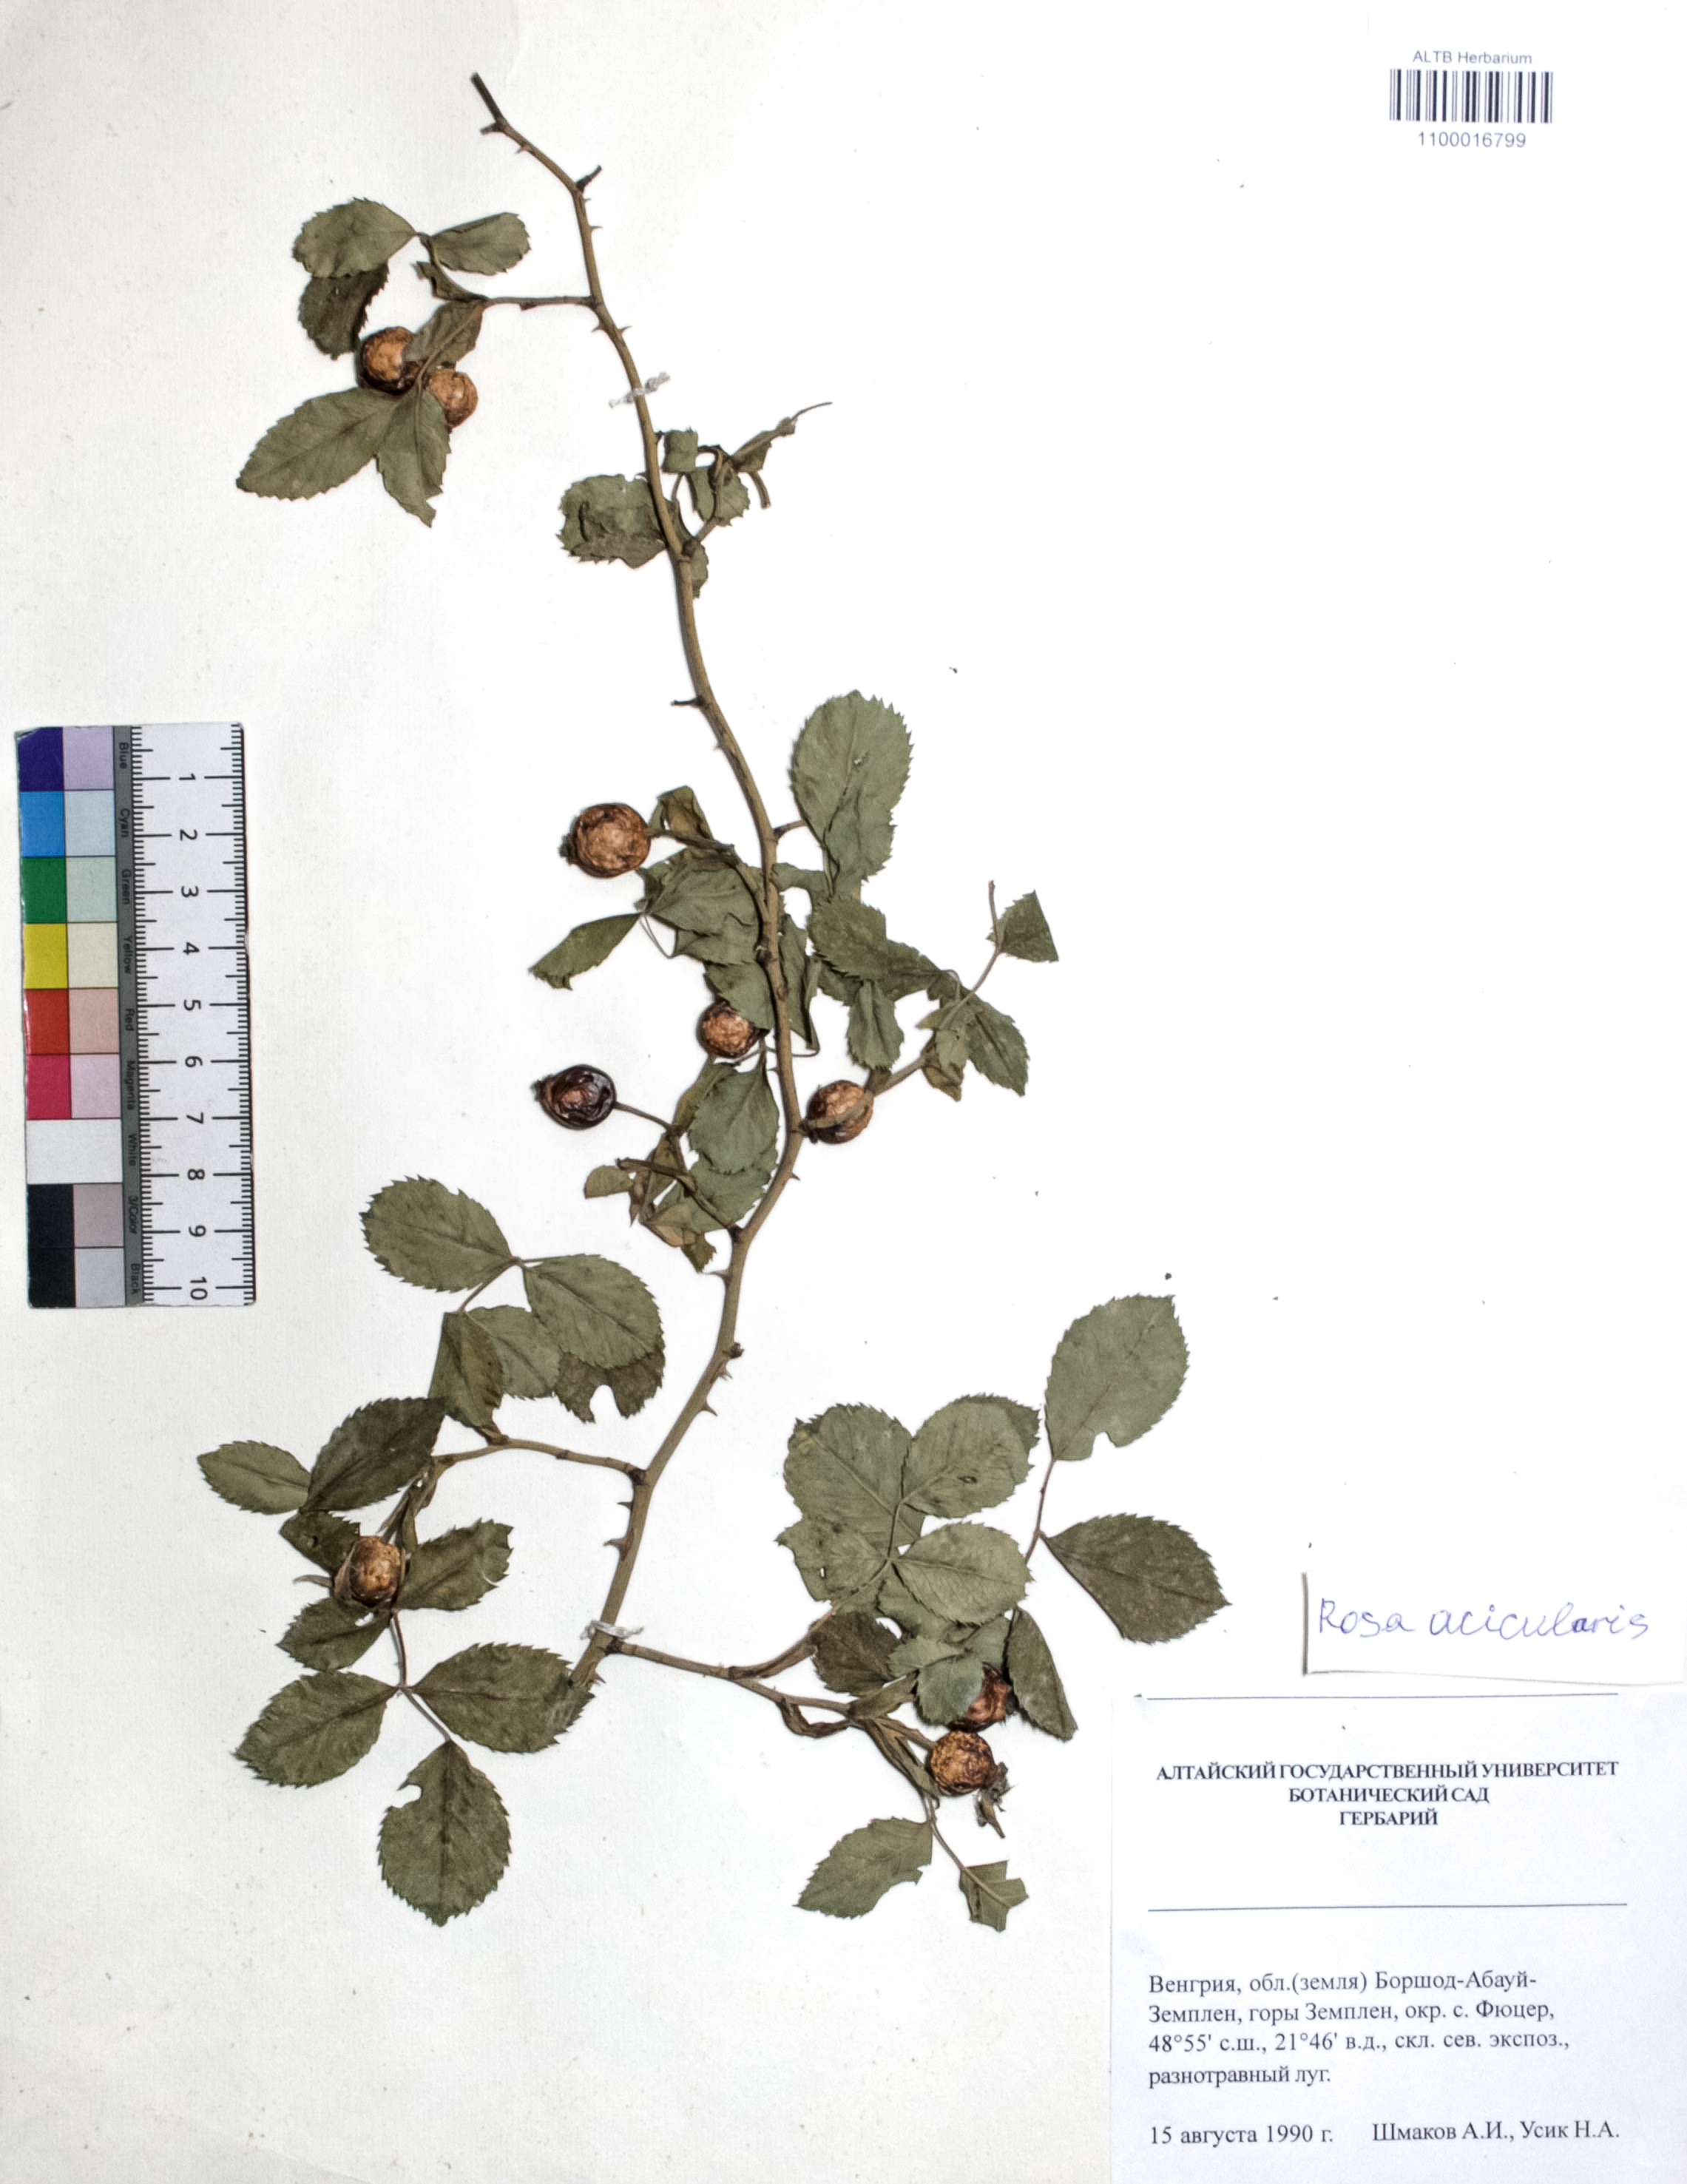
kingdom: Plantae
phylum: Tracheophyta
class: Magnoliopsida
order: Rosales
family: Rosaceae
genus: Rosa
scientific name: Rosa acicularis
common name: Prickly rose
